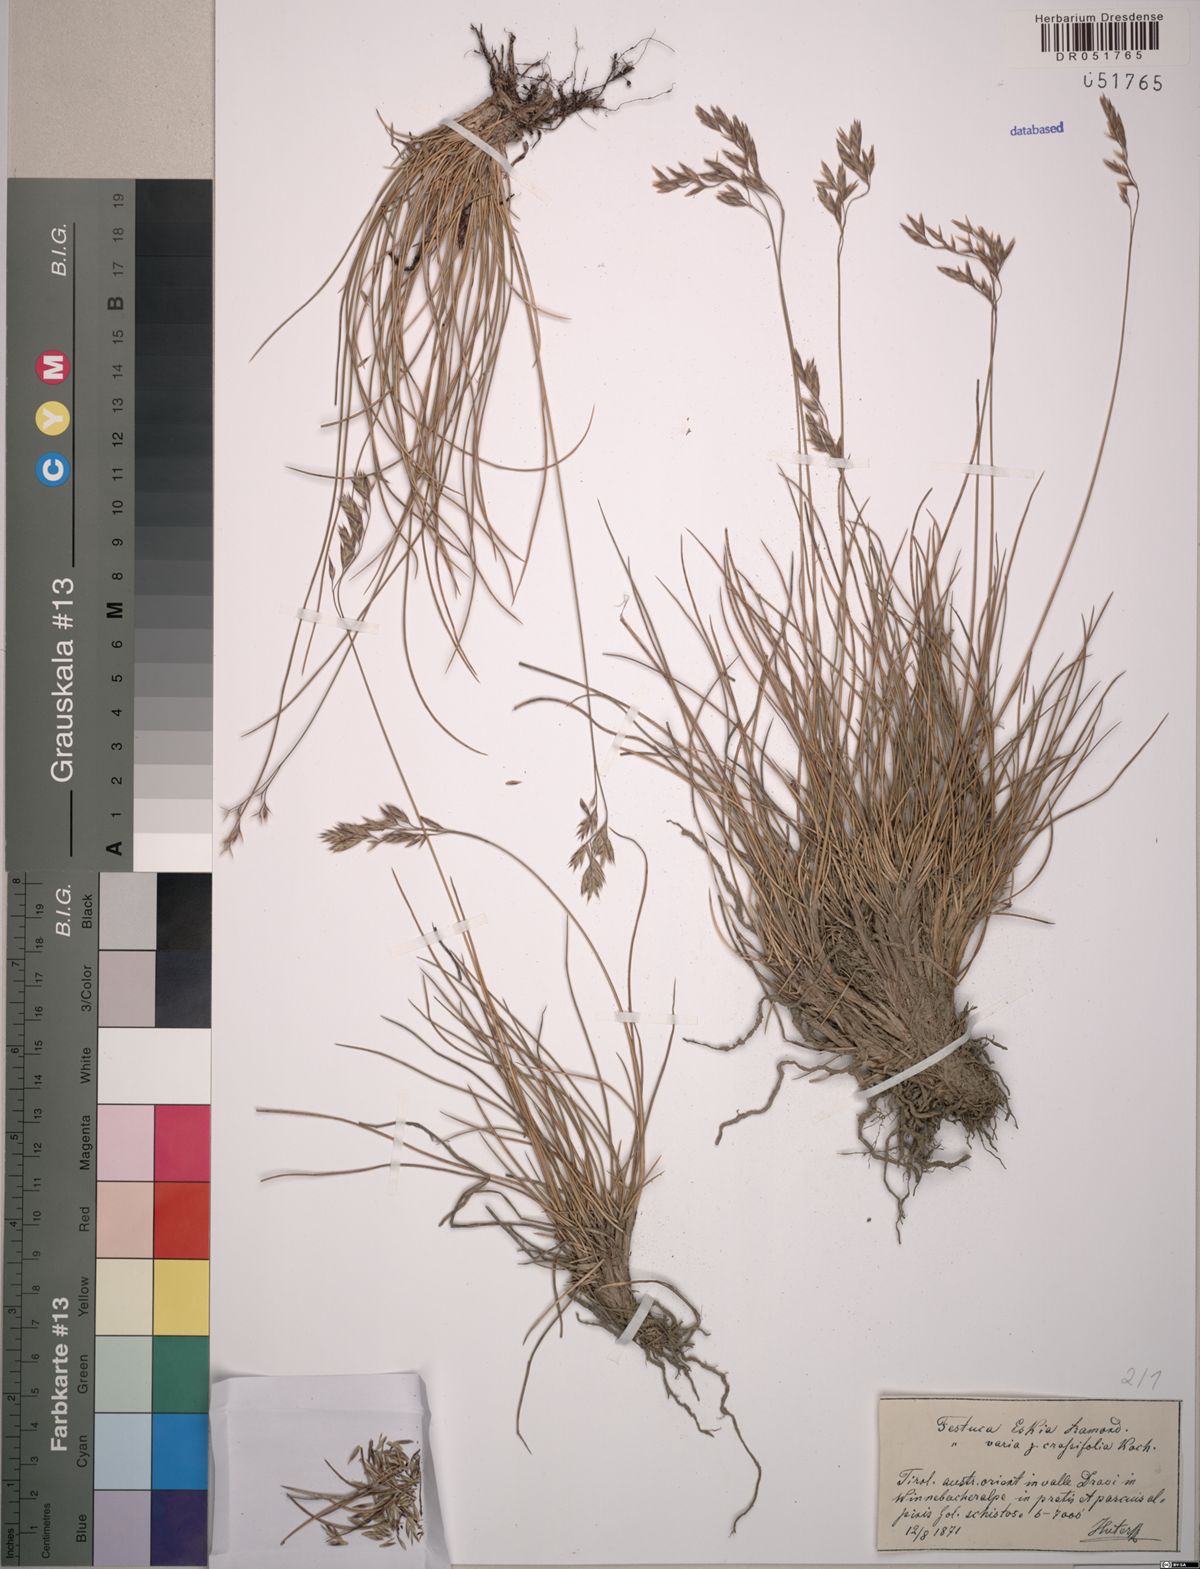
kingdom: Plantae
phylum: Tracheophyta
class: Liliopsida
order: Poales
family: Poaceae
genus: Festuca
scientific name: Festuca eskia
